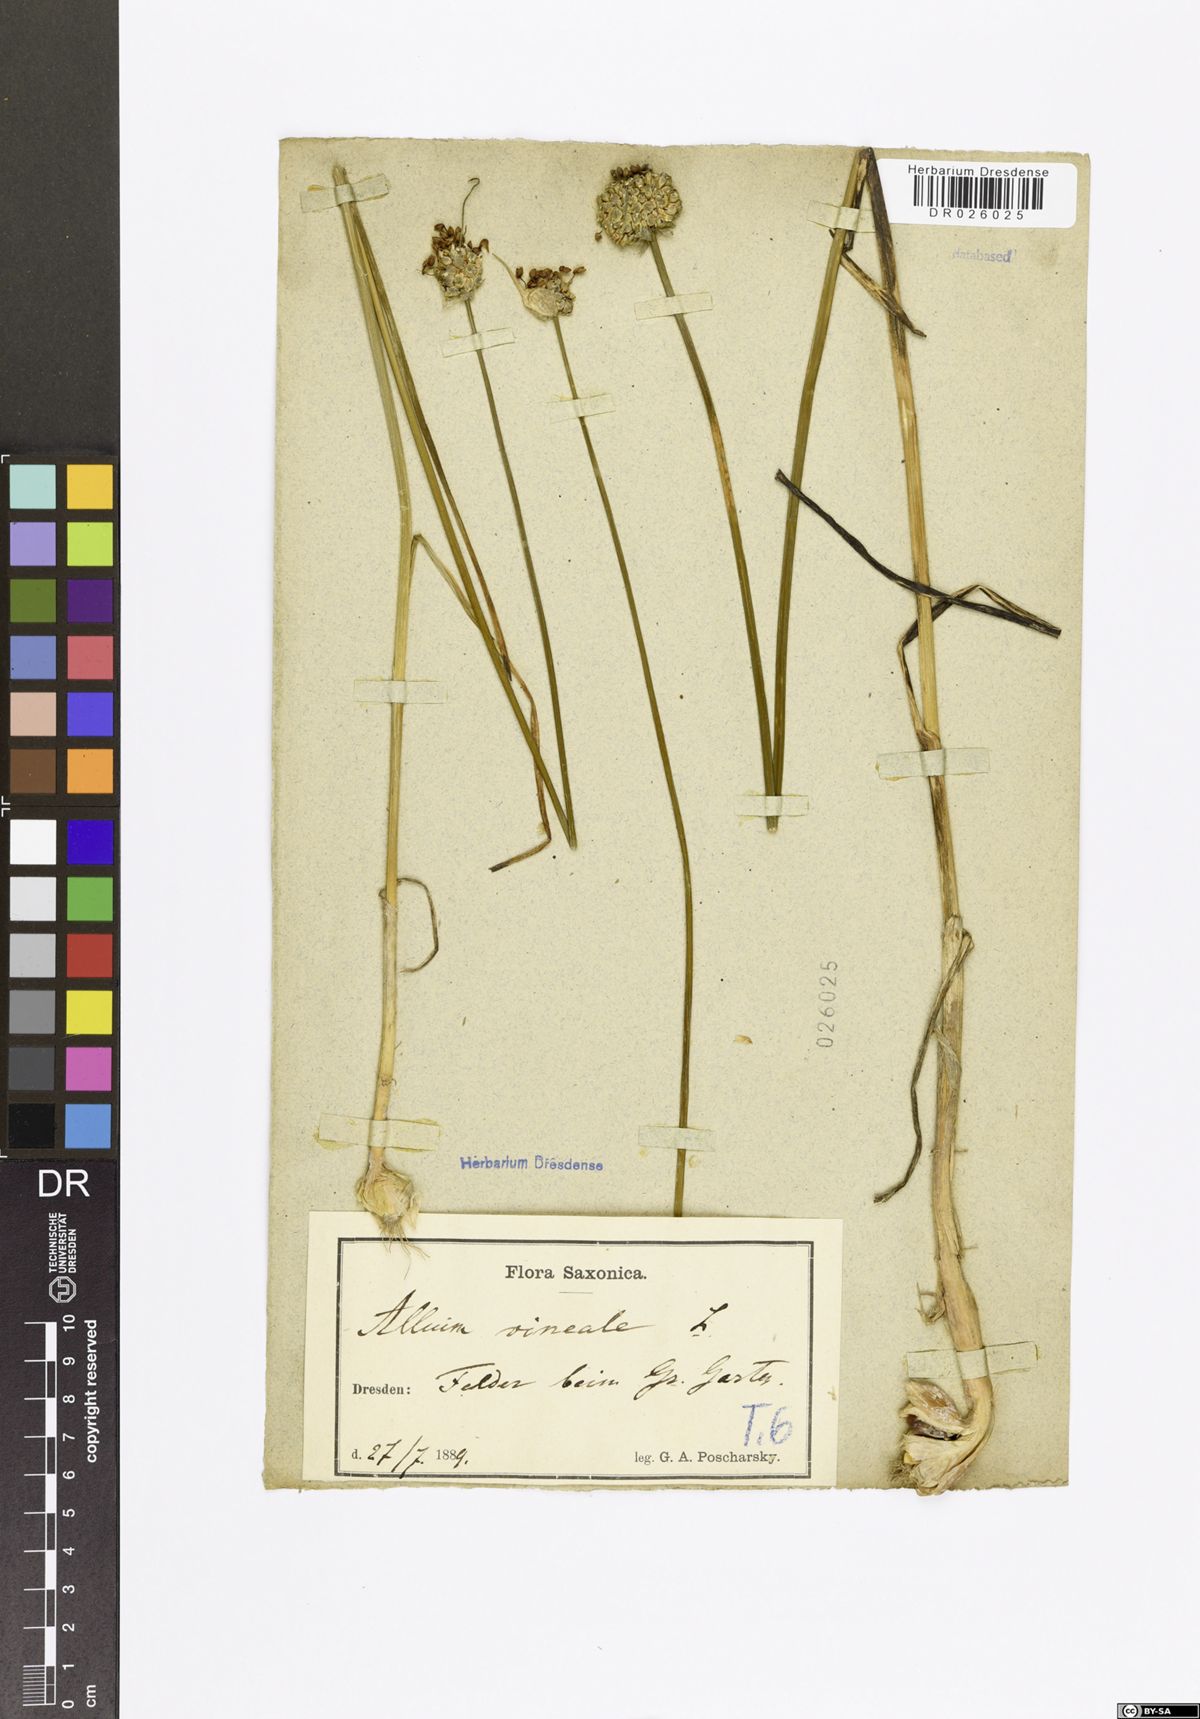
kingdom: Plantae
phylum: Tracheophyta
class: Liliopsida
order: Asparagales
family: Amaryllidaceae
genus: Allium
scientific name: Allium vineale
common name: Crow garlic
